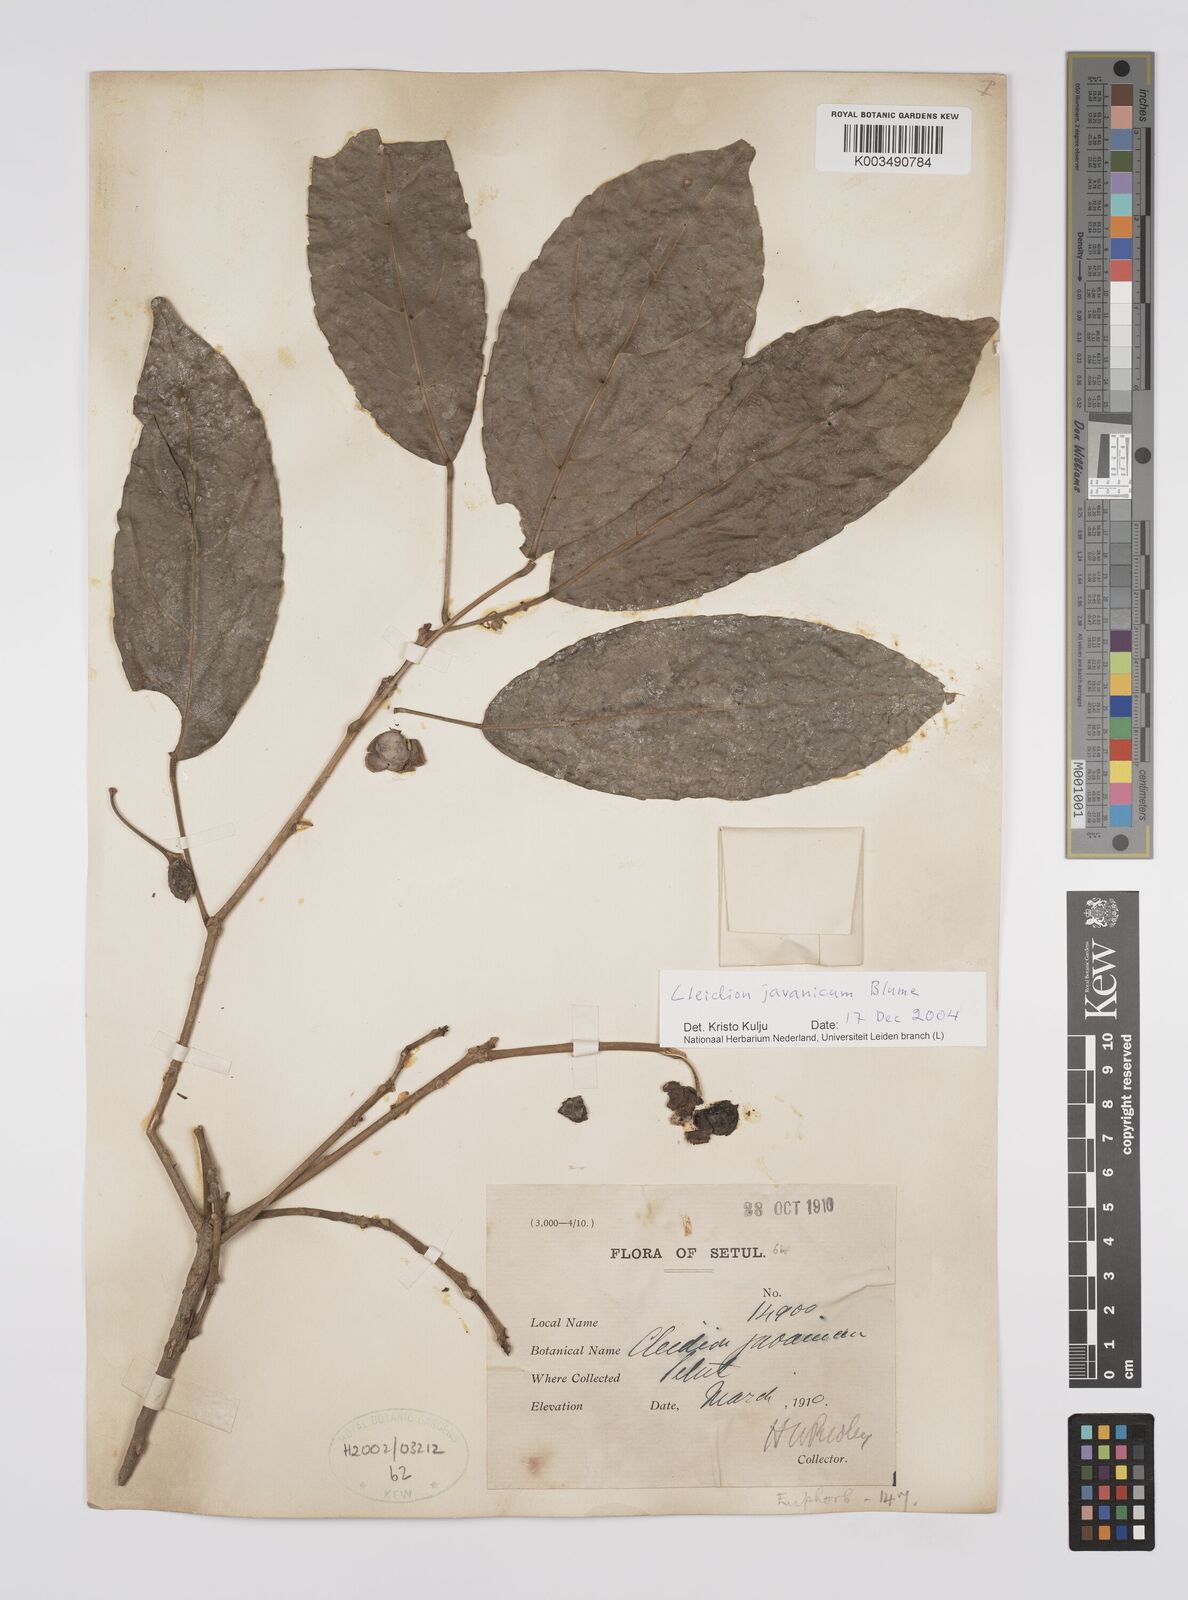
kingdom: Plantae
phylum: Tracheophyta
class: Magnoliopsida
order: Malpighiales
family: Euphorbiaceae
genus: Cleidion
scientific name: Cleidion javanicum
